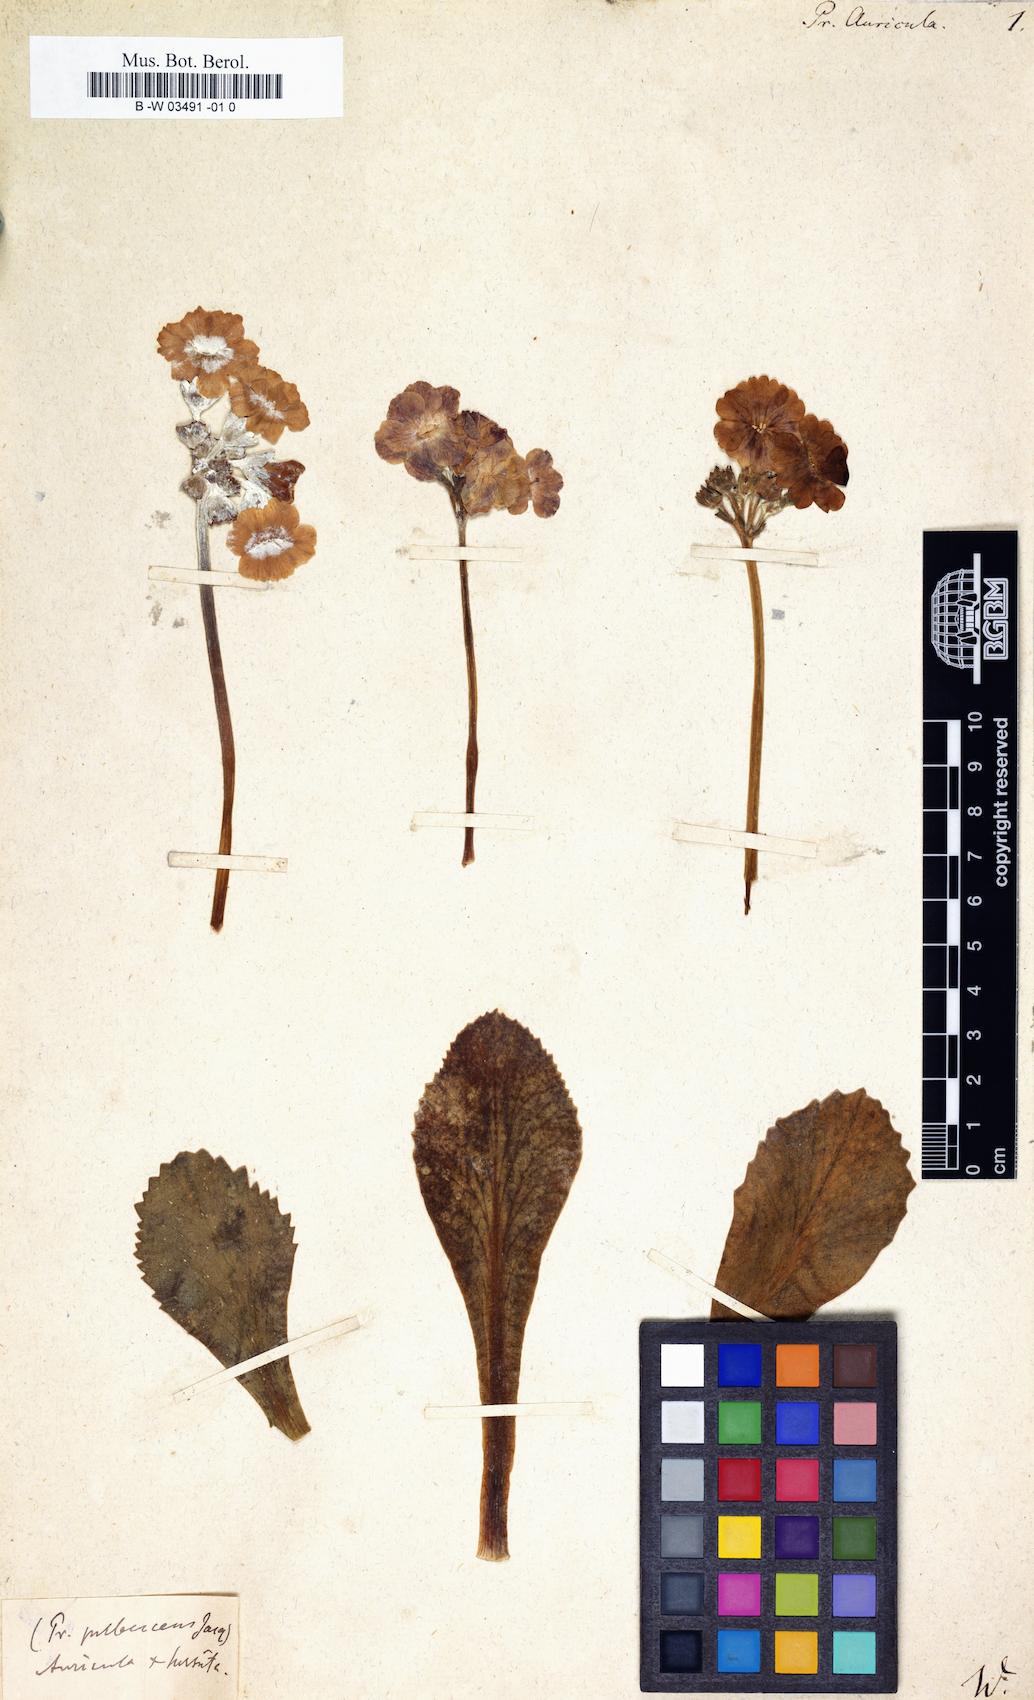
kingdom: Plantae
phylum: Tracheophyta
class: Magnoliopsida
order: Ericales
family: Primulaceae
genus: Primula
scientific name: Primula auricula
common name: Auricula
